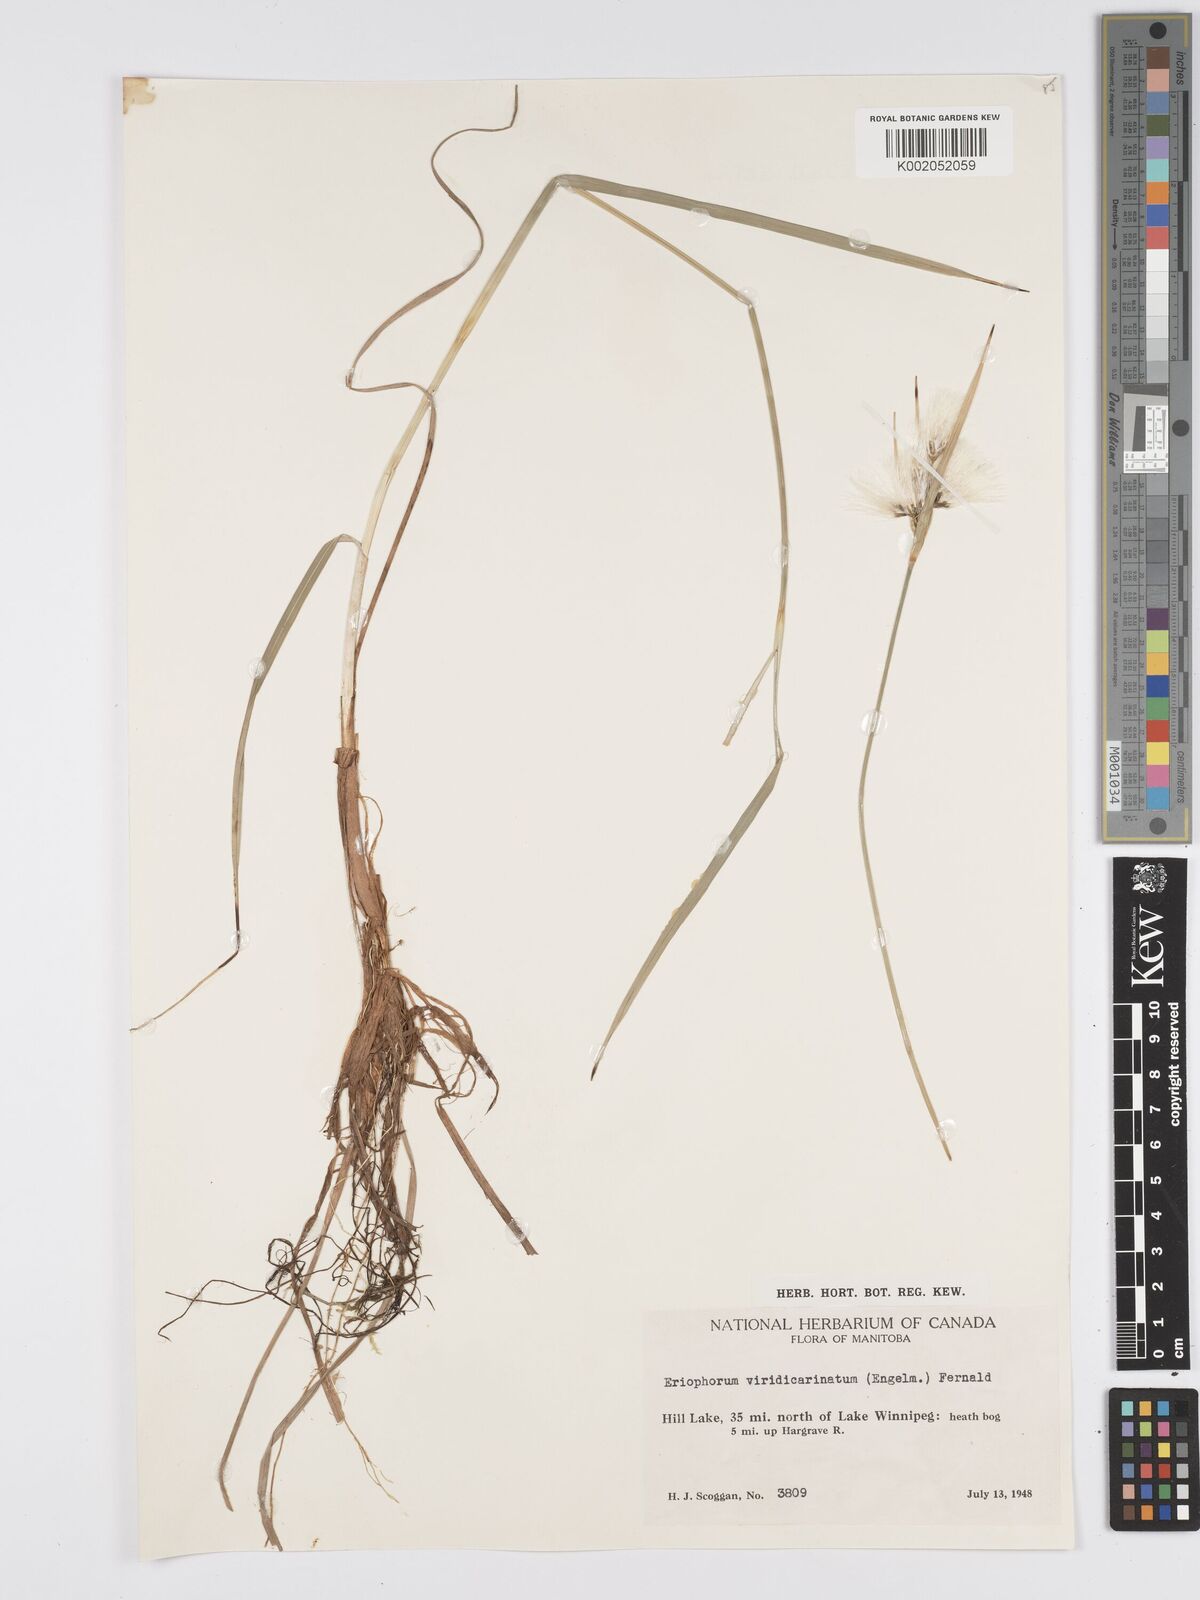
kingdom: Plantae
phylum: Tracheophyta
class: Liliopsida
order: Poales
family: Cyperaceae
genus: Eriophorum
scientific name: Eriophorum viridicarinatum
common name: Green-keeled cottongrass
